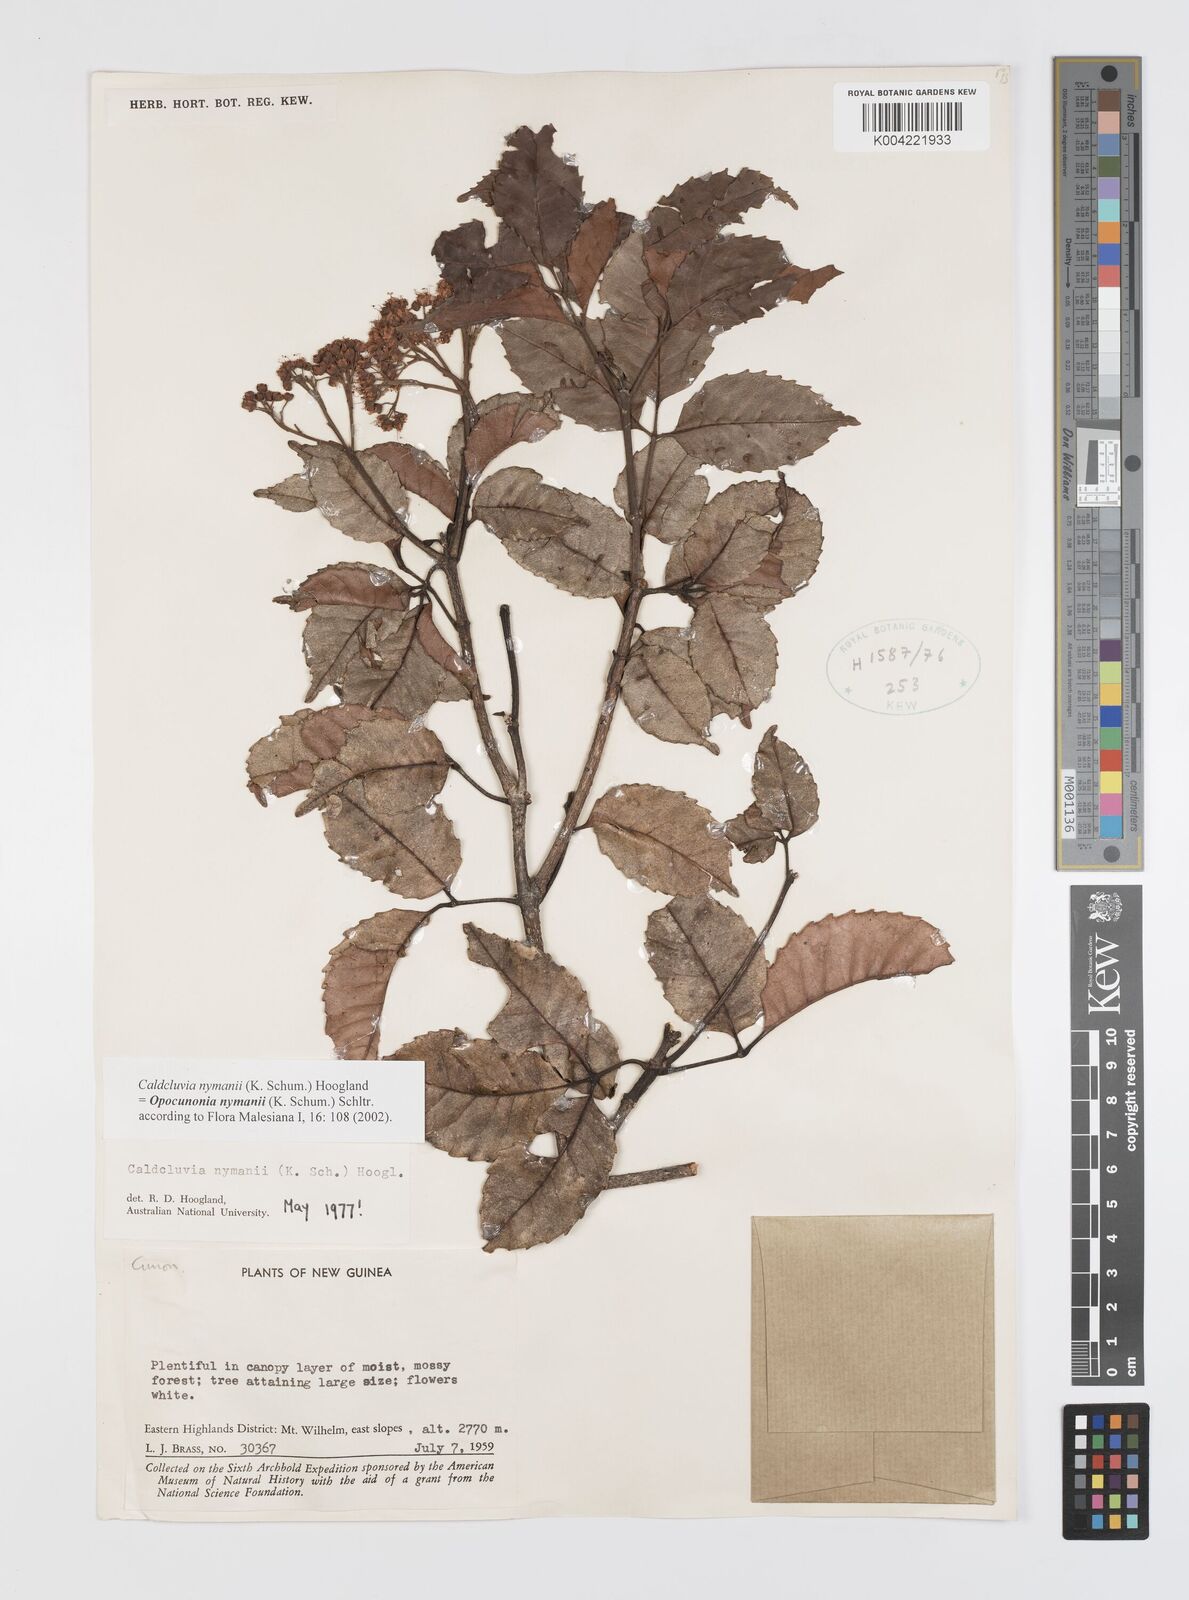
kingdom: Plantae
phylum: Tracheophyta
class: Magnoliopsida
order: Oxalidales
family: Cunoniaceae
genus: Opocunonia
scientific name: Opocunonia nymanii
